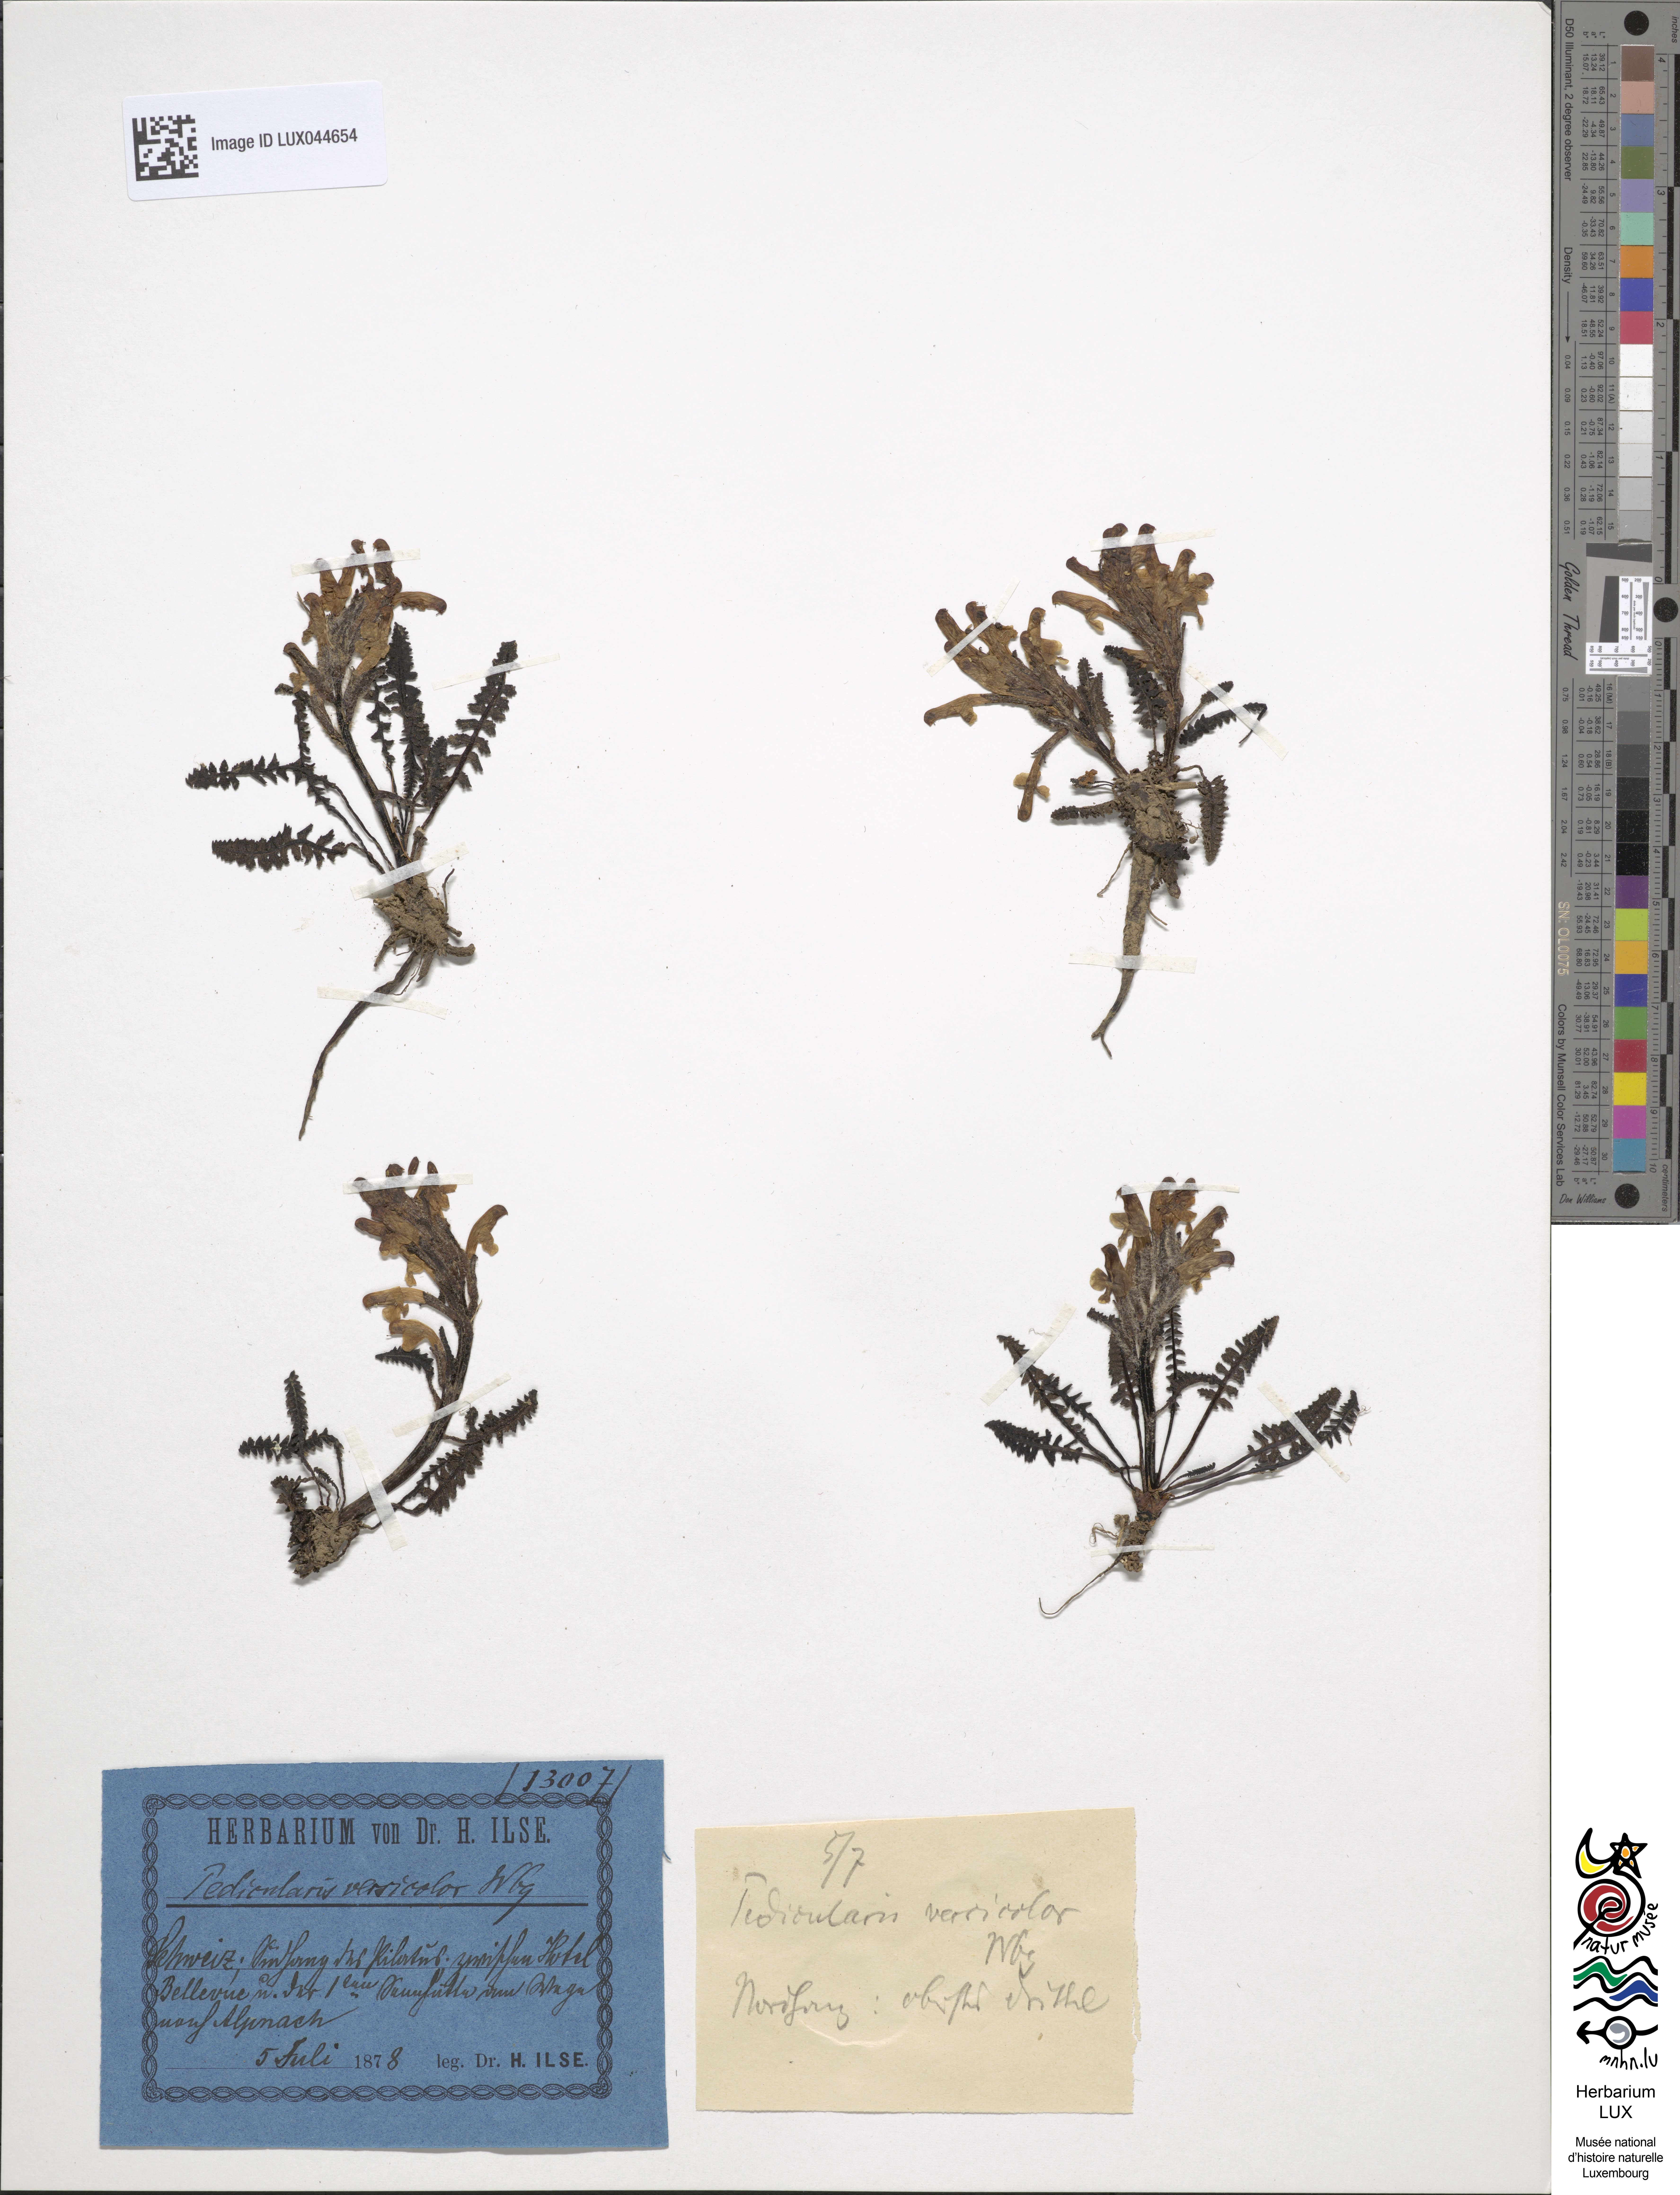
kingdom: Plantae
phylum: Tracheophyta
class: Magnoliopsida
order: Lamiales
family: Orobanchaceae
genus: Pedicularis
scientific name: Pedicularis oederi
